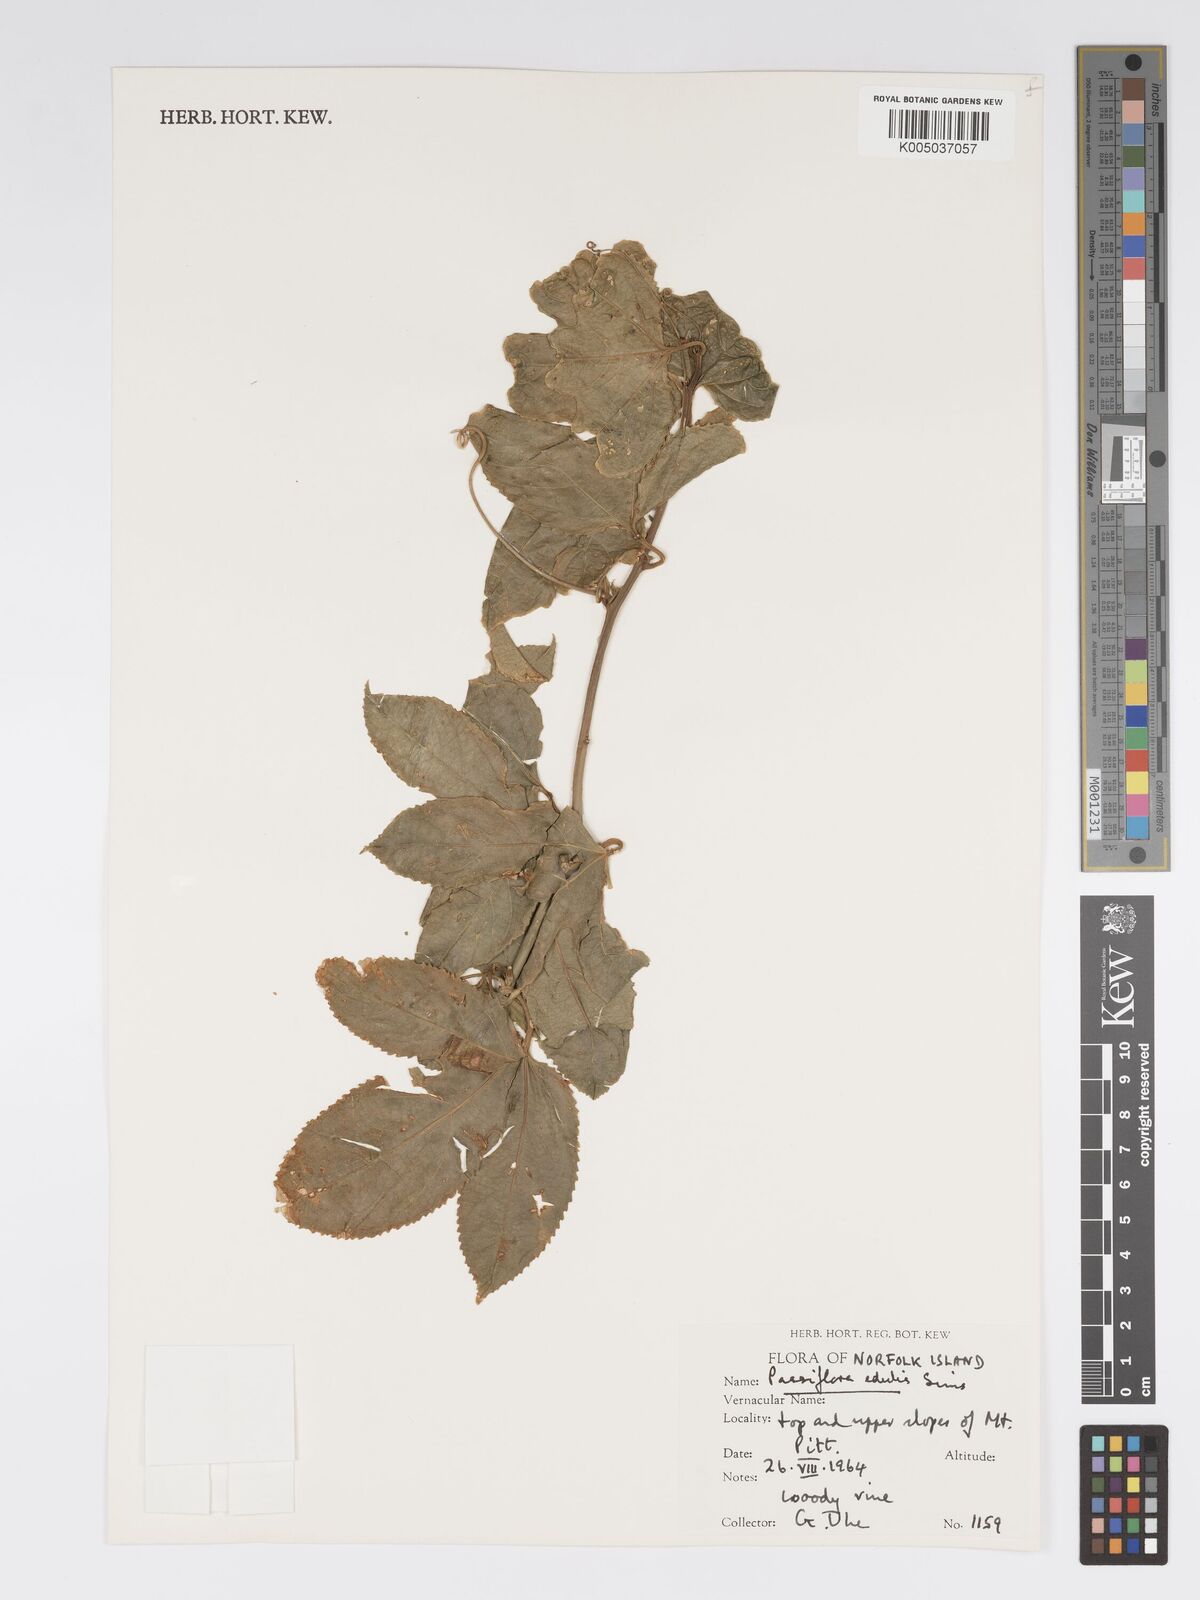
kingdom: Plantae
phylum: Tracheophyta
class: Magnoliopsida
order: Malpighiales
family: Passifloraceae
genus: Passiflora
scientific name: Passiflora edulis
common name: Purple granadilla
